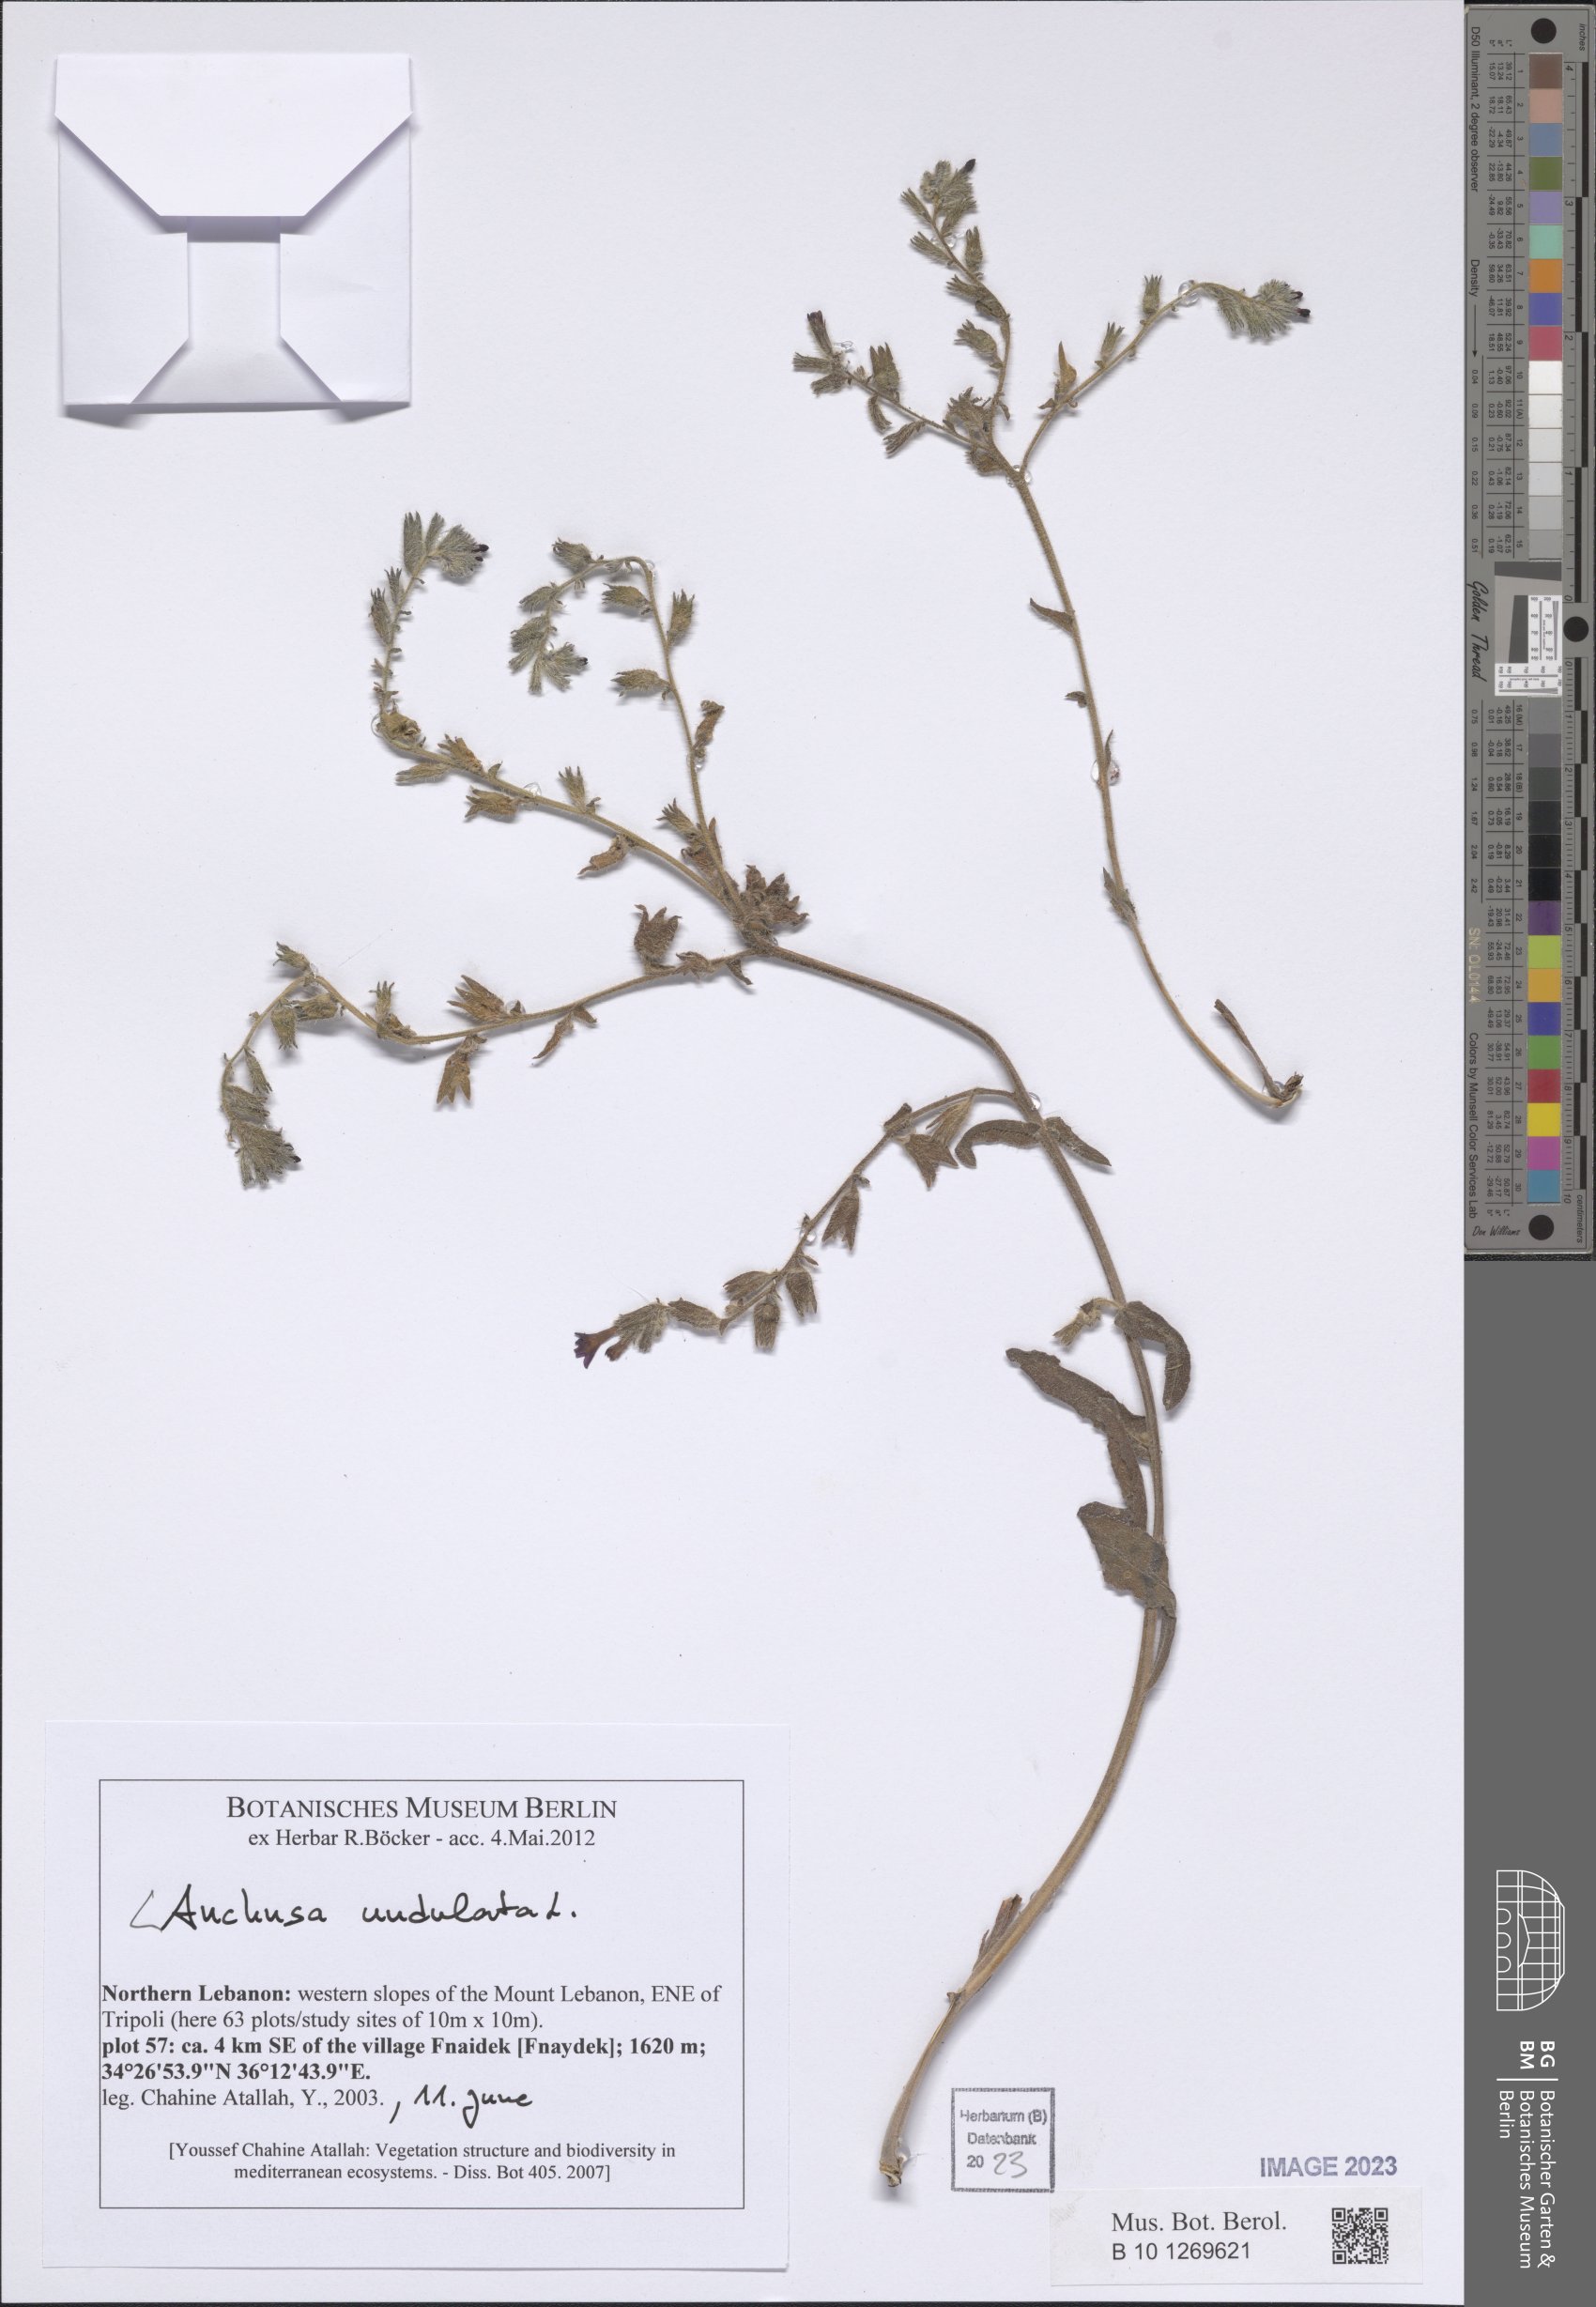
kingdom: Plantae
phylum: Tracheophyta
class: Magnoliopsida
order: Boraginales
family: Boraginaceae
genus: Anchusa
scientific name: Anchusa undulata
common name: Undulate alkanet
